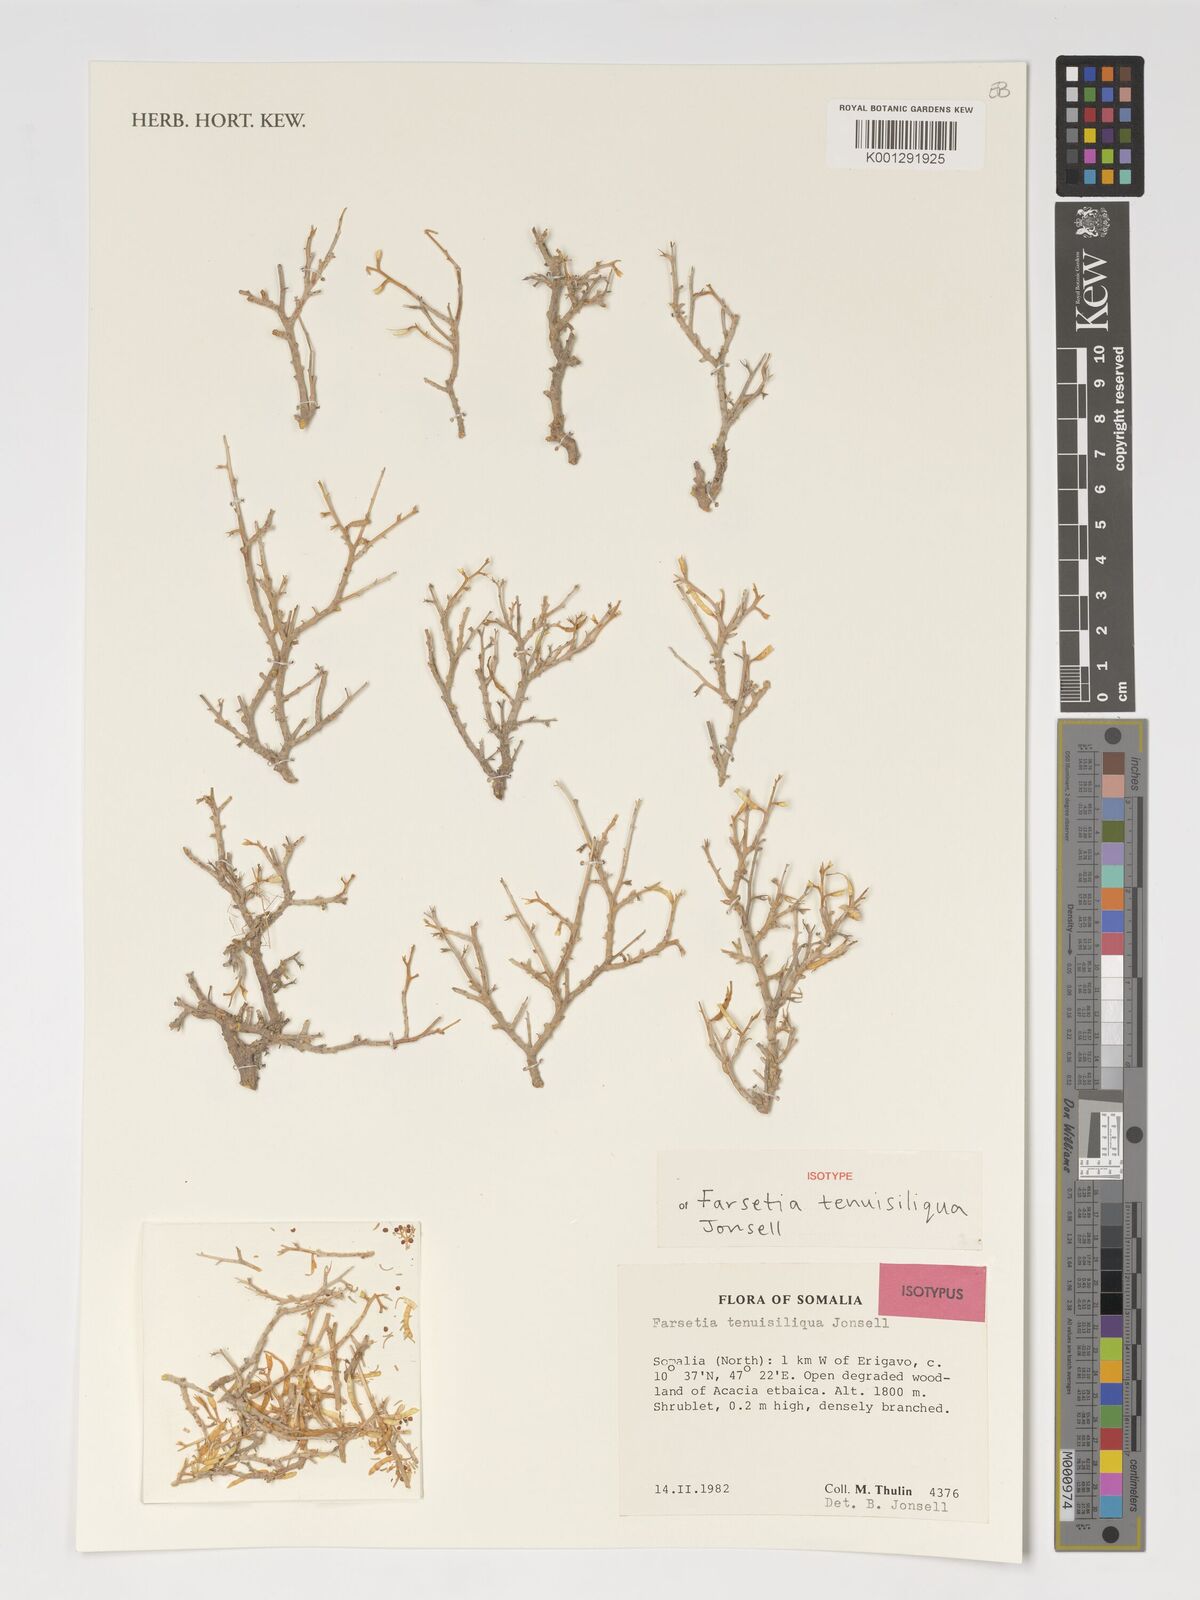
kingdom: Plantae
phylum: Tracheophyta
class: Magnoliopsida
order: Brassicales
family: Brassicaceae
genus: Farsetia
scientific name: Farsetia tenuisiliqua
